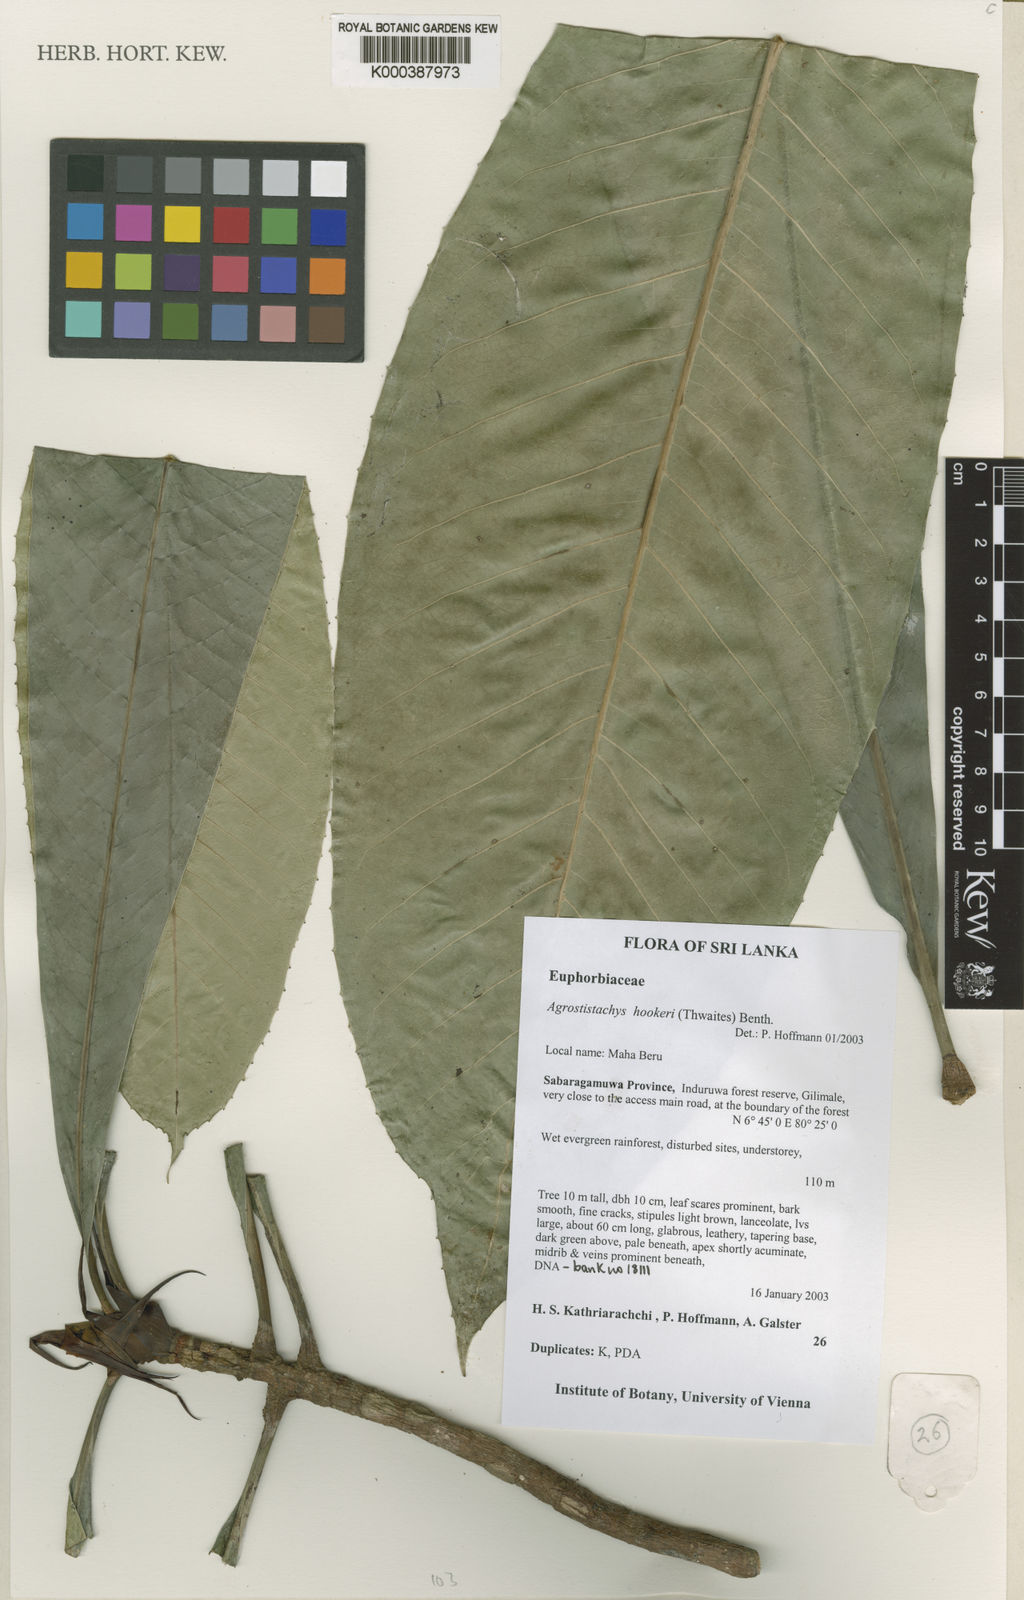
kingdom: Plantae
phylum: Tracheophyta
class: Magnoliopsida
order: Malpighiales
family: Euphorbiaceae
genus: Agrostistachys
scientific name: Agrostistachys
